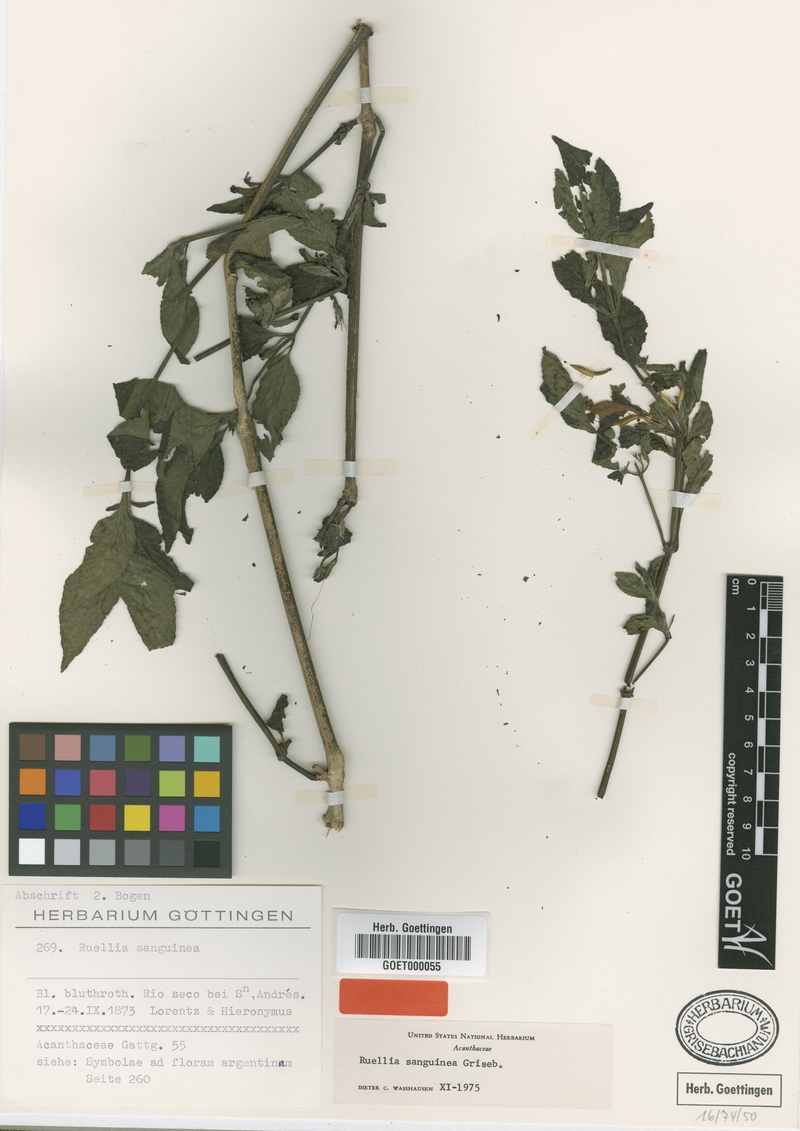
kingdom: Plantae
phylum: Tracheophyta
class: Magnoliopsida
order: Lamiales
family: Acanthaceae
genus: Ruellia
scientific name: Ruellia sanguinea
